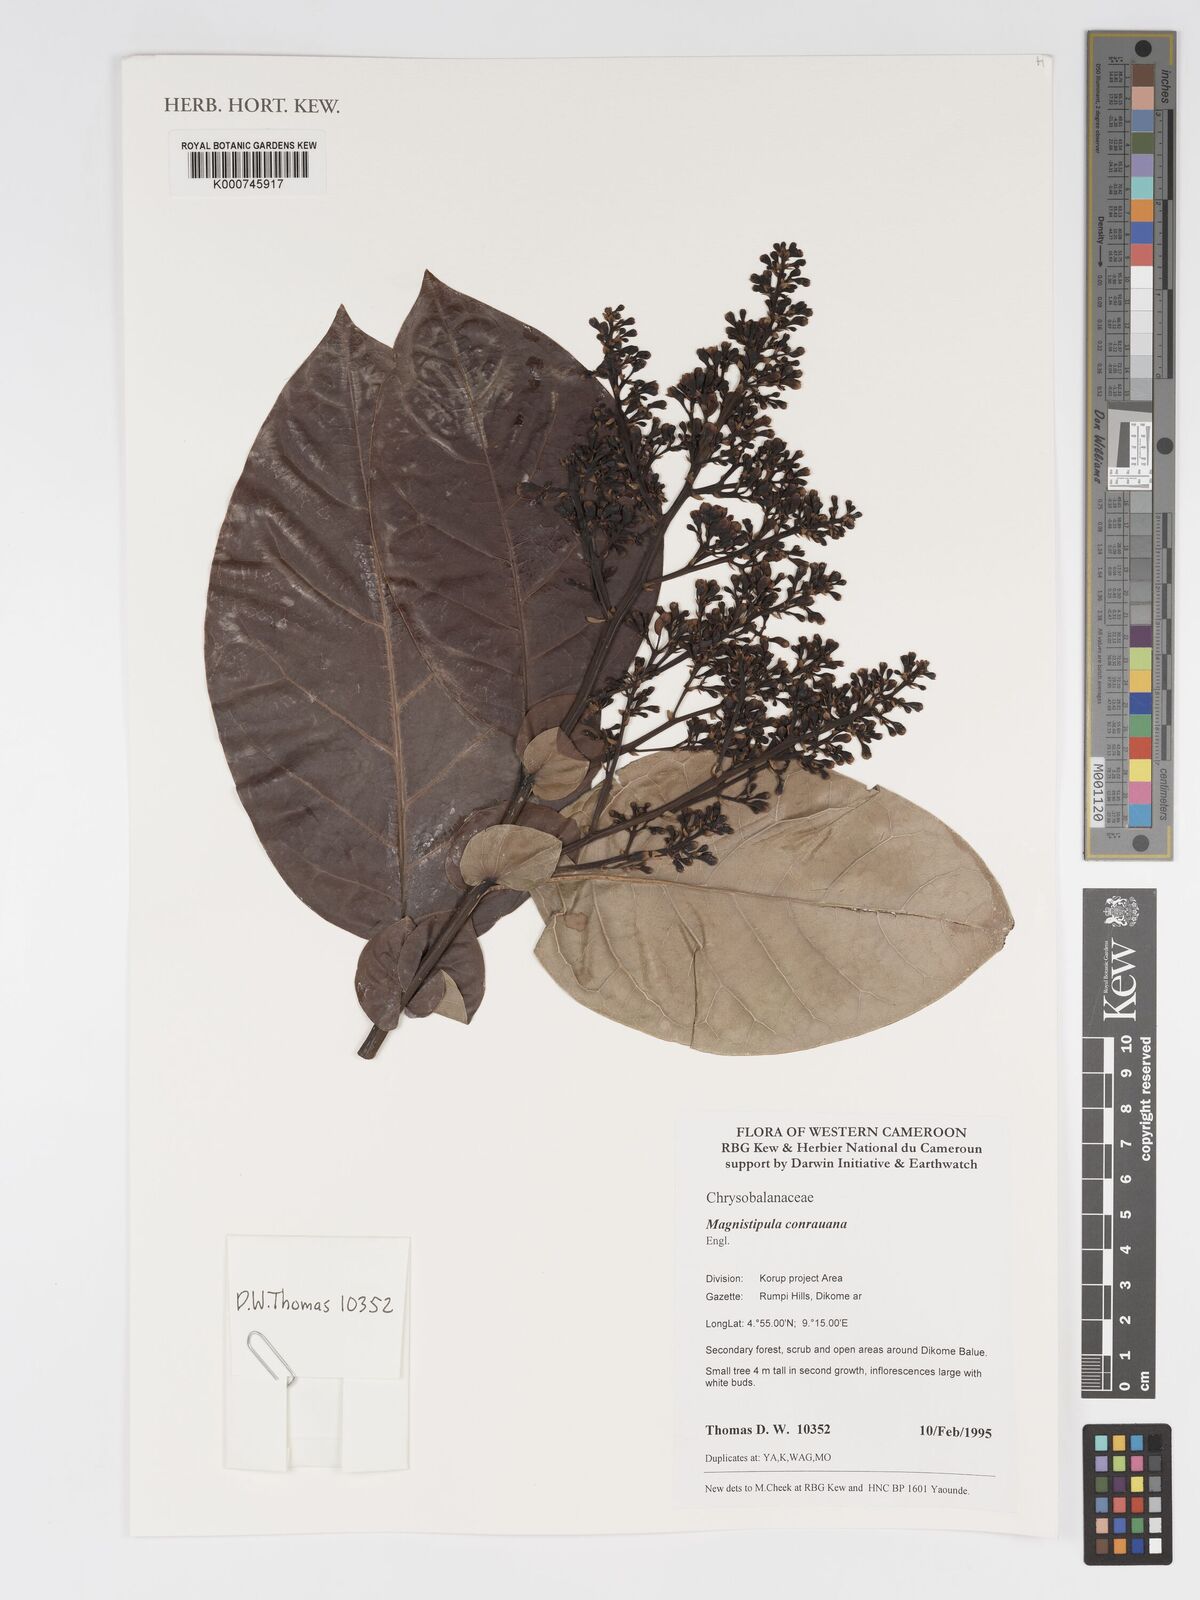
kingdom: Plantae
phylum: Tracheophyta
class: Magnoliopsida
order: Malpighiales
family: Chrysobalanaceae
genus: Magnistipula
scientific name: Magnistipula conrauana
